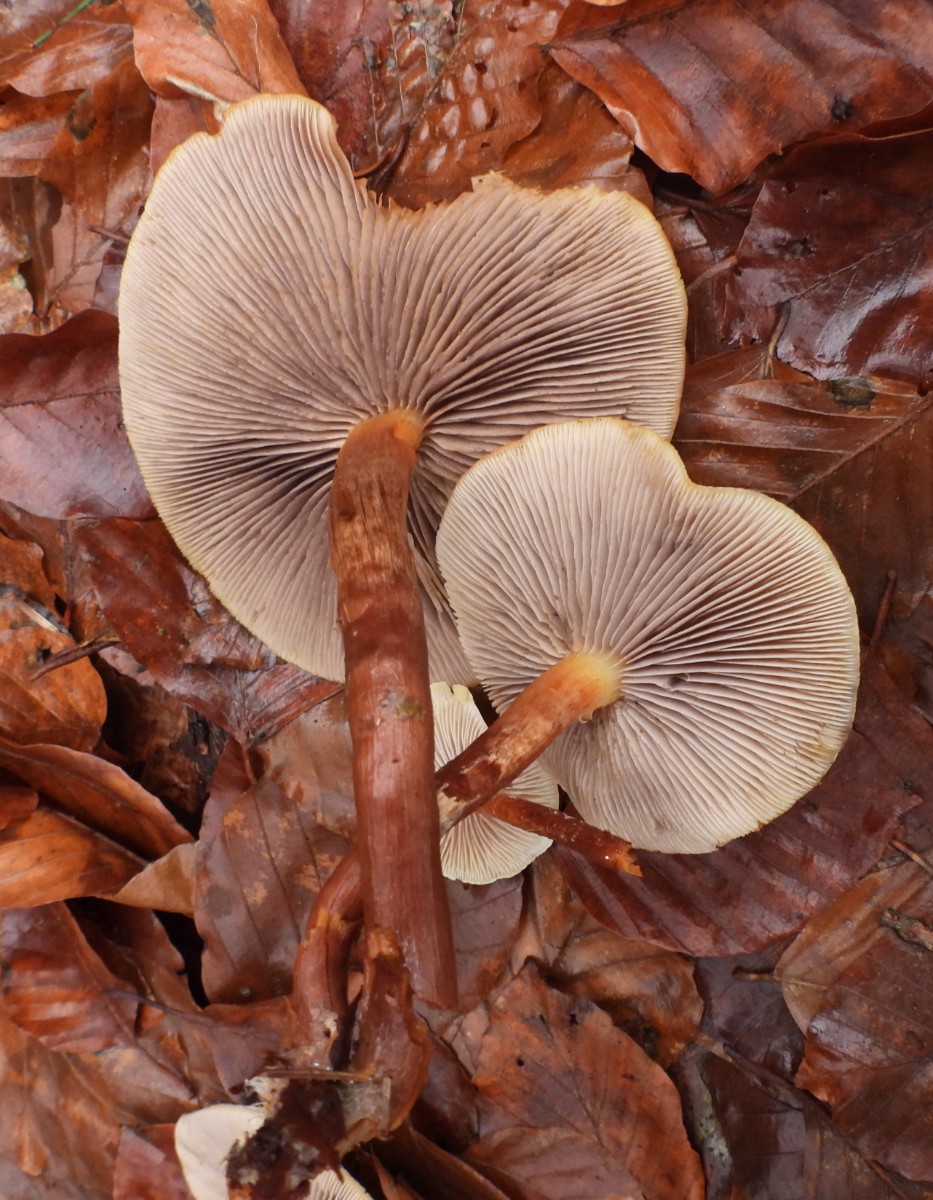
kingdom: Fungi
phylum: Basidiomycota
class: Agaricomycetes
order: Agaricales
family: Strophariaceae
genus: Hypholoma
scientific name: Hypholoma capnoides
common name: gran-svovlhat
